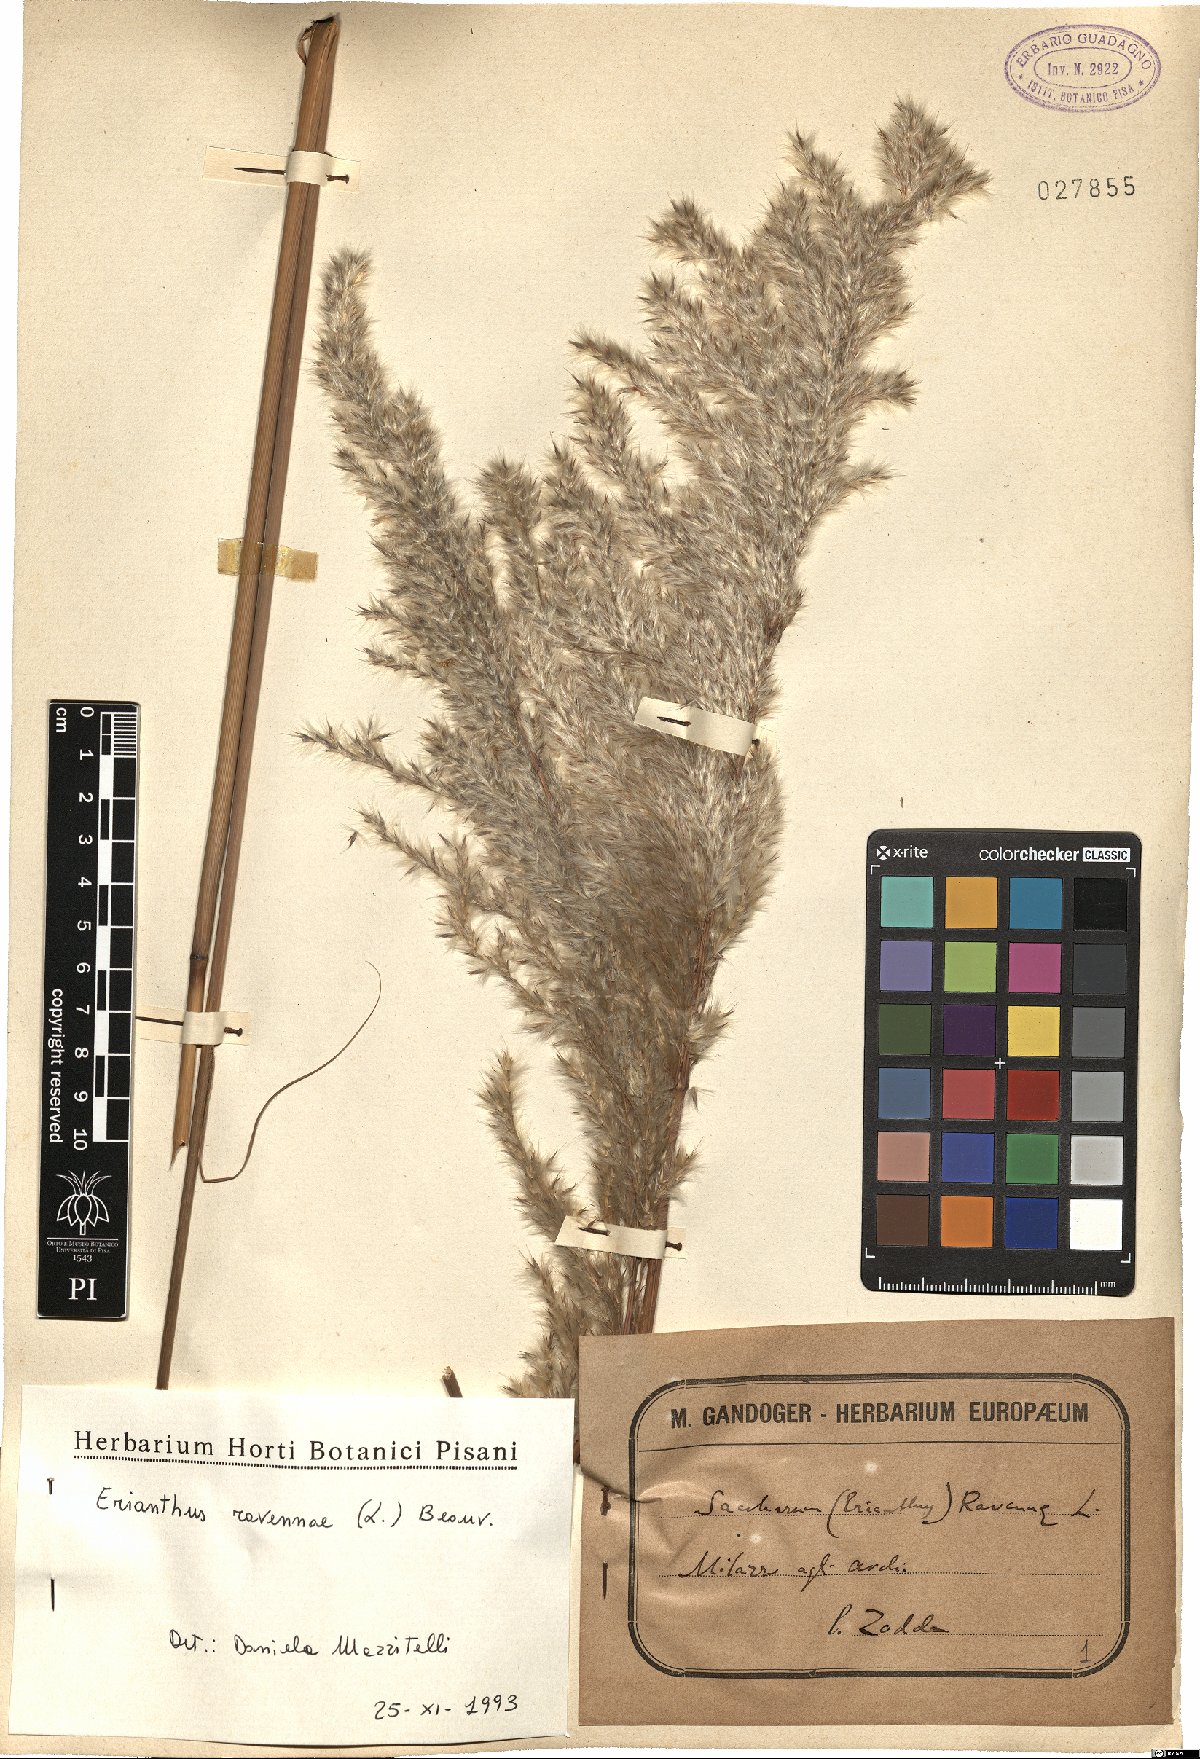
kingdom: Plantae
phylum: Tracheophyta
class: Liliopsida
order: Poales
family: Poaceae
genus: Tripidium
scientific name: Tripidium ravennae
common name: Ravenna grass
